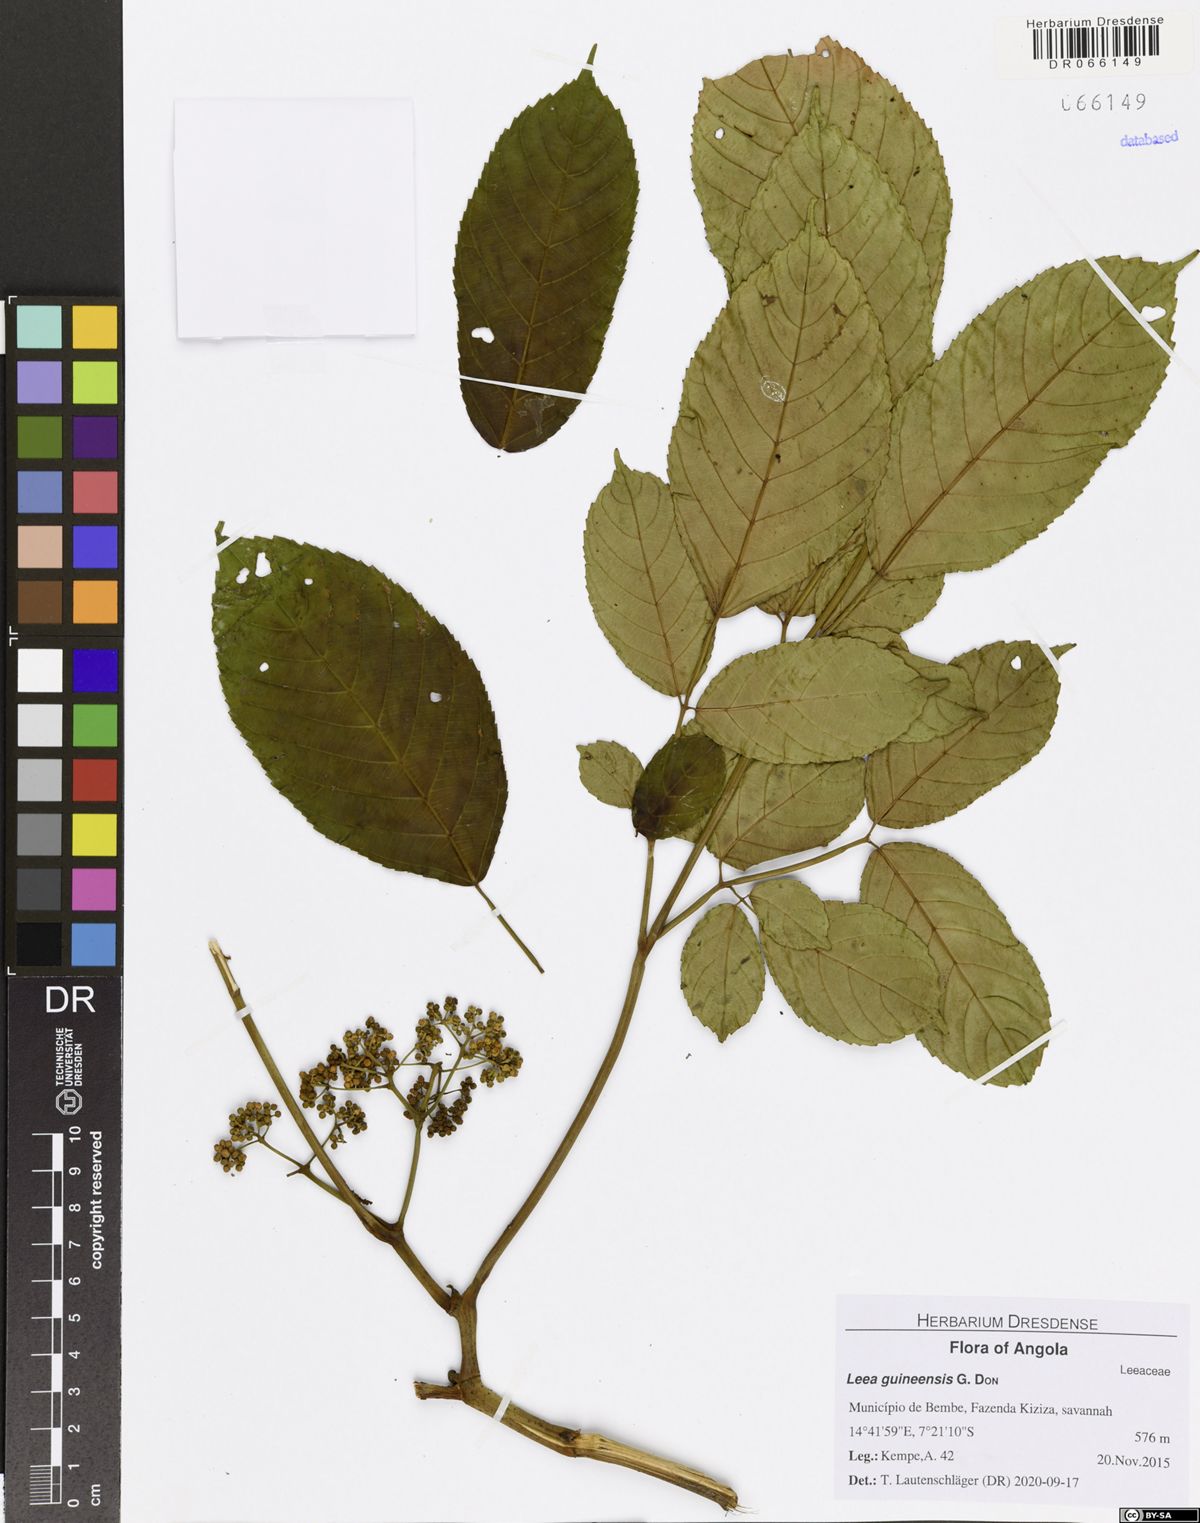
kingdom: Plantae
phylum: Tracheophyta
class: Magnoliopsida
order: Vitales
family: Vitaceae
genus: Leea
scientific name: Leea guineensis
